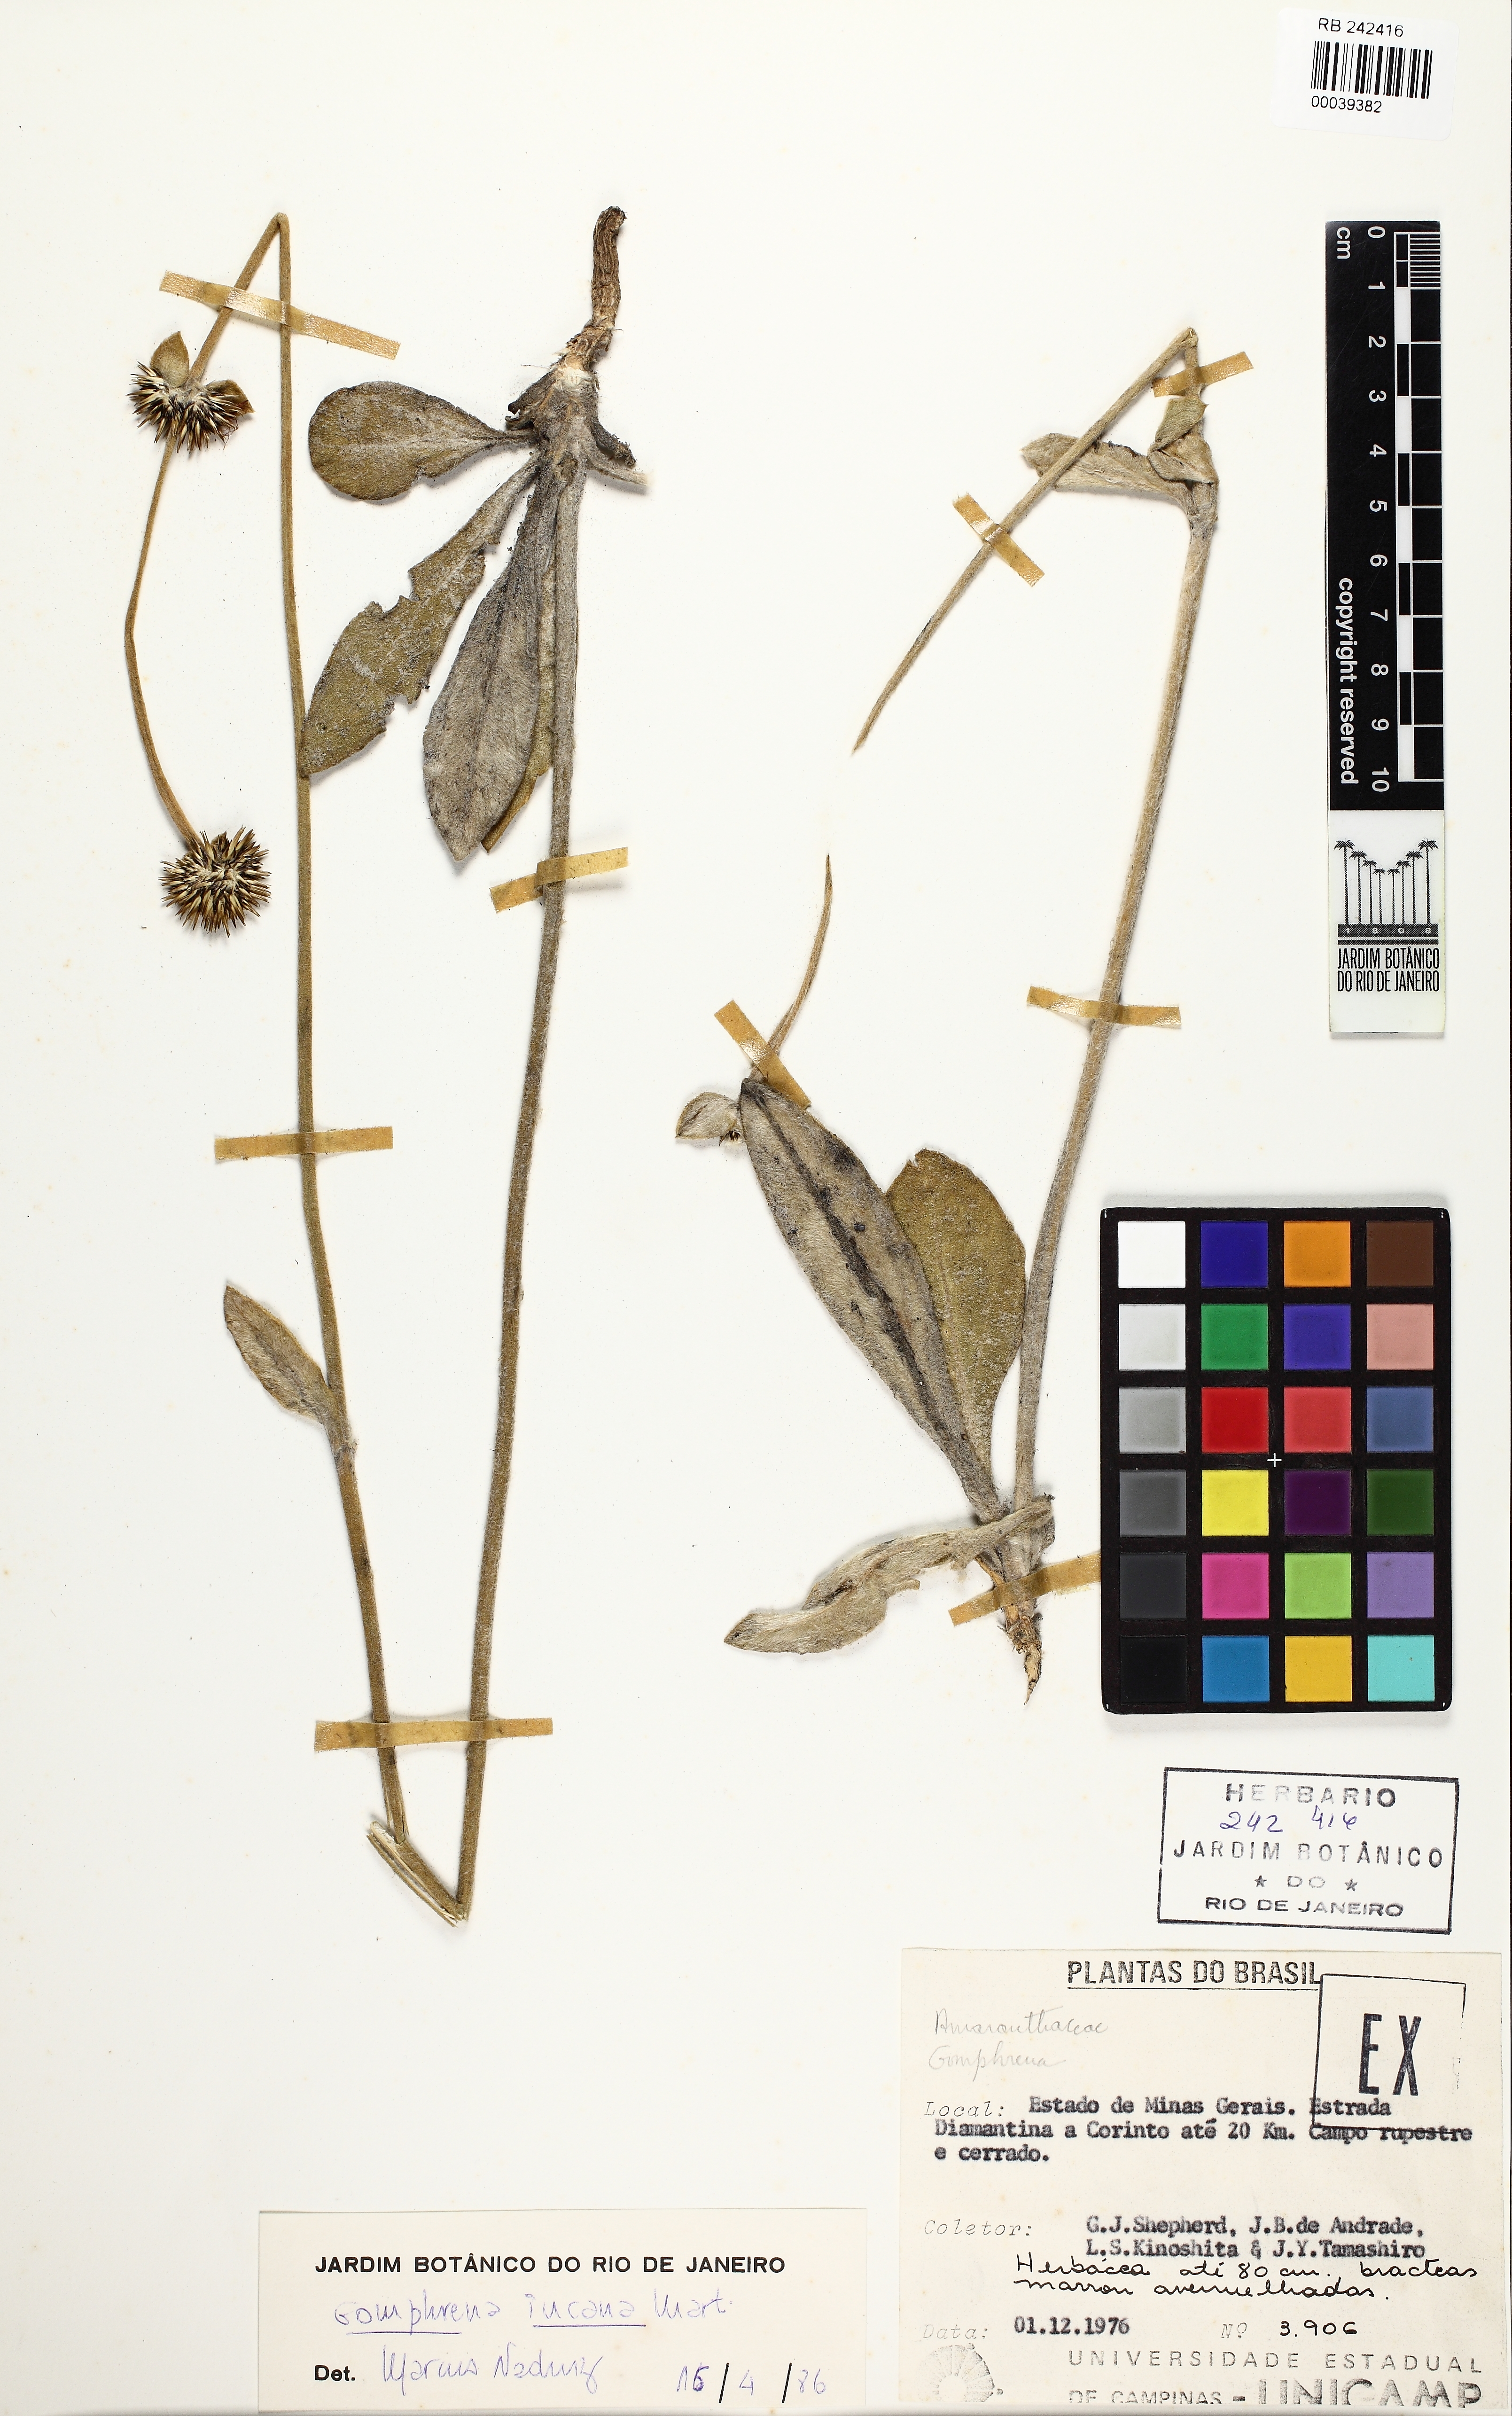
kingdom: Plantae
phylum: Tracheophyta
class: Magnoliopsida
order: Caryophyllales
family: Amaranthaceae
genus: Gomphrena
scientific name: Gomphrena incana
